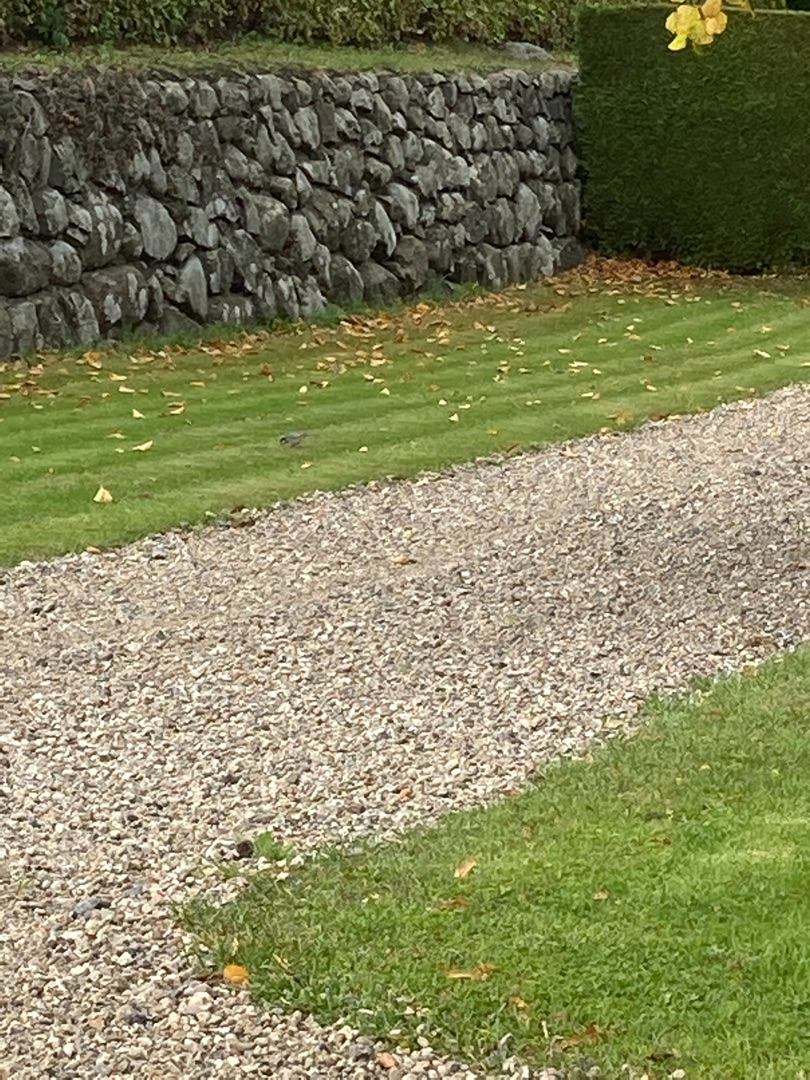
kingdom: Animalia
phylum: Chordata
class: Aves
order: Passeriformes
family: Motacillidae
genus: Motacilla
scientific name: Motacilla alba
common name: Hvid vipstjert
